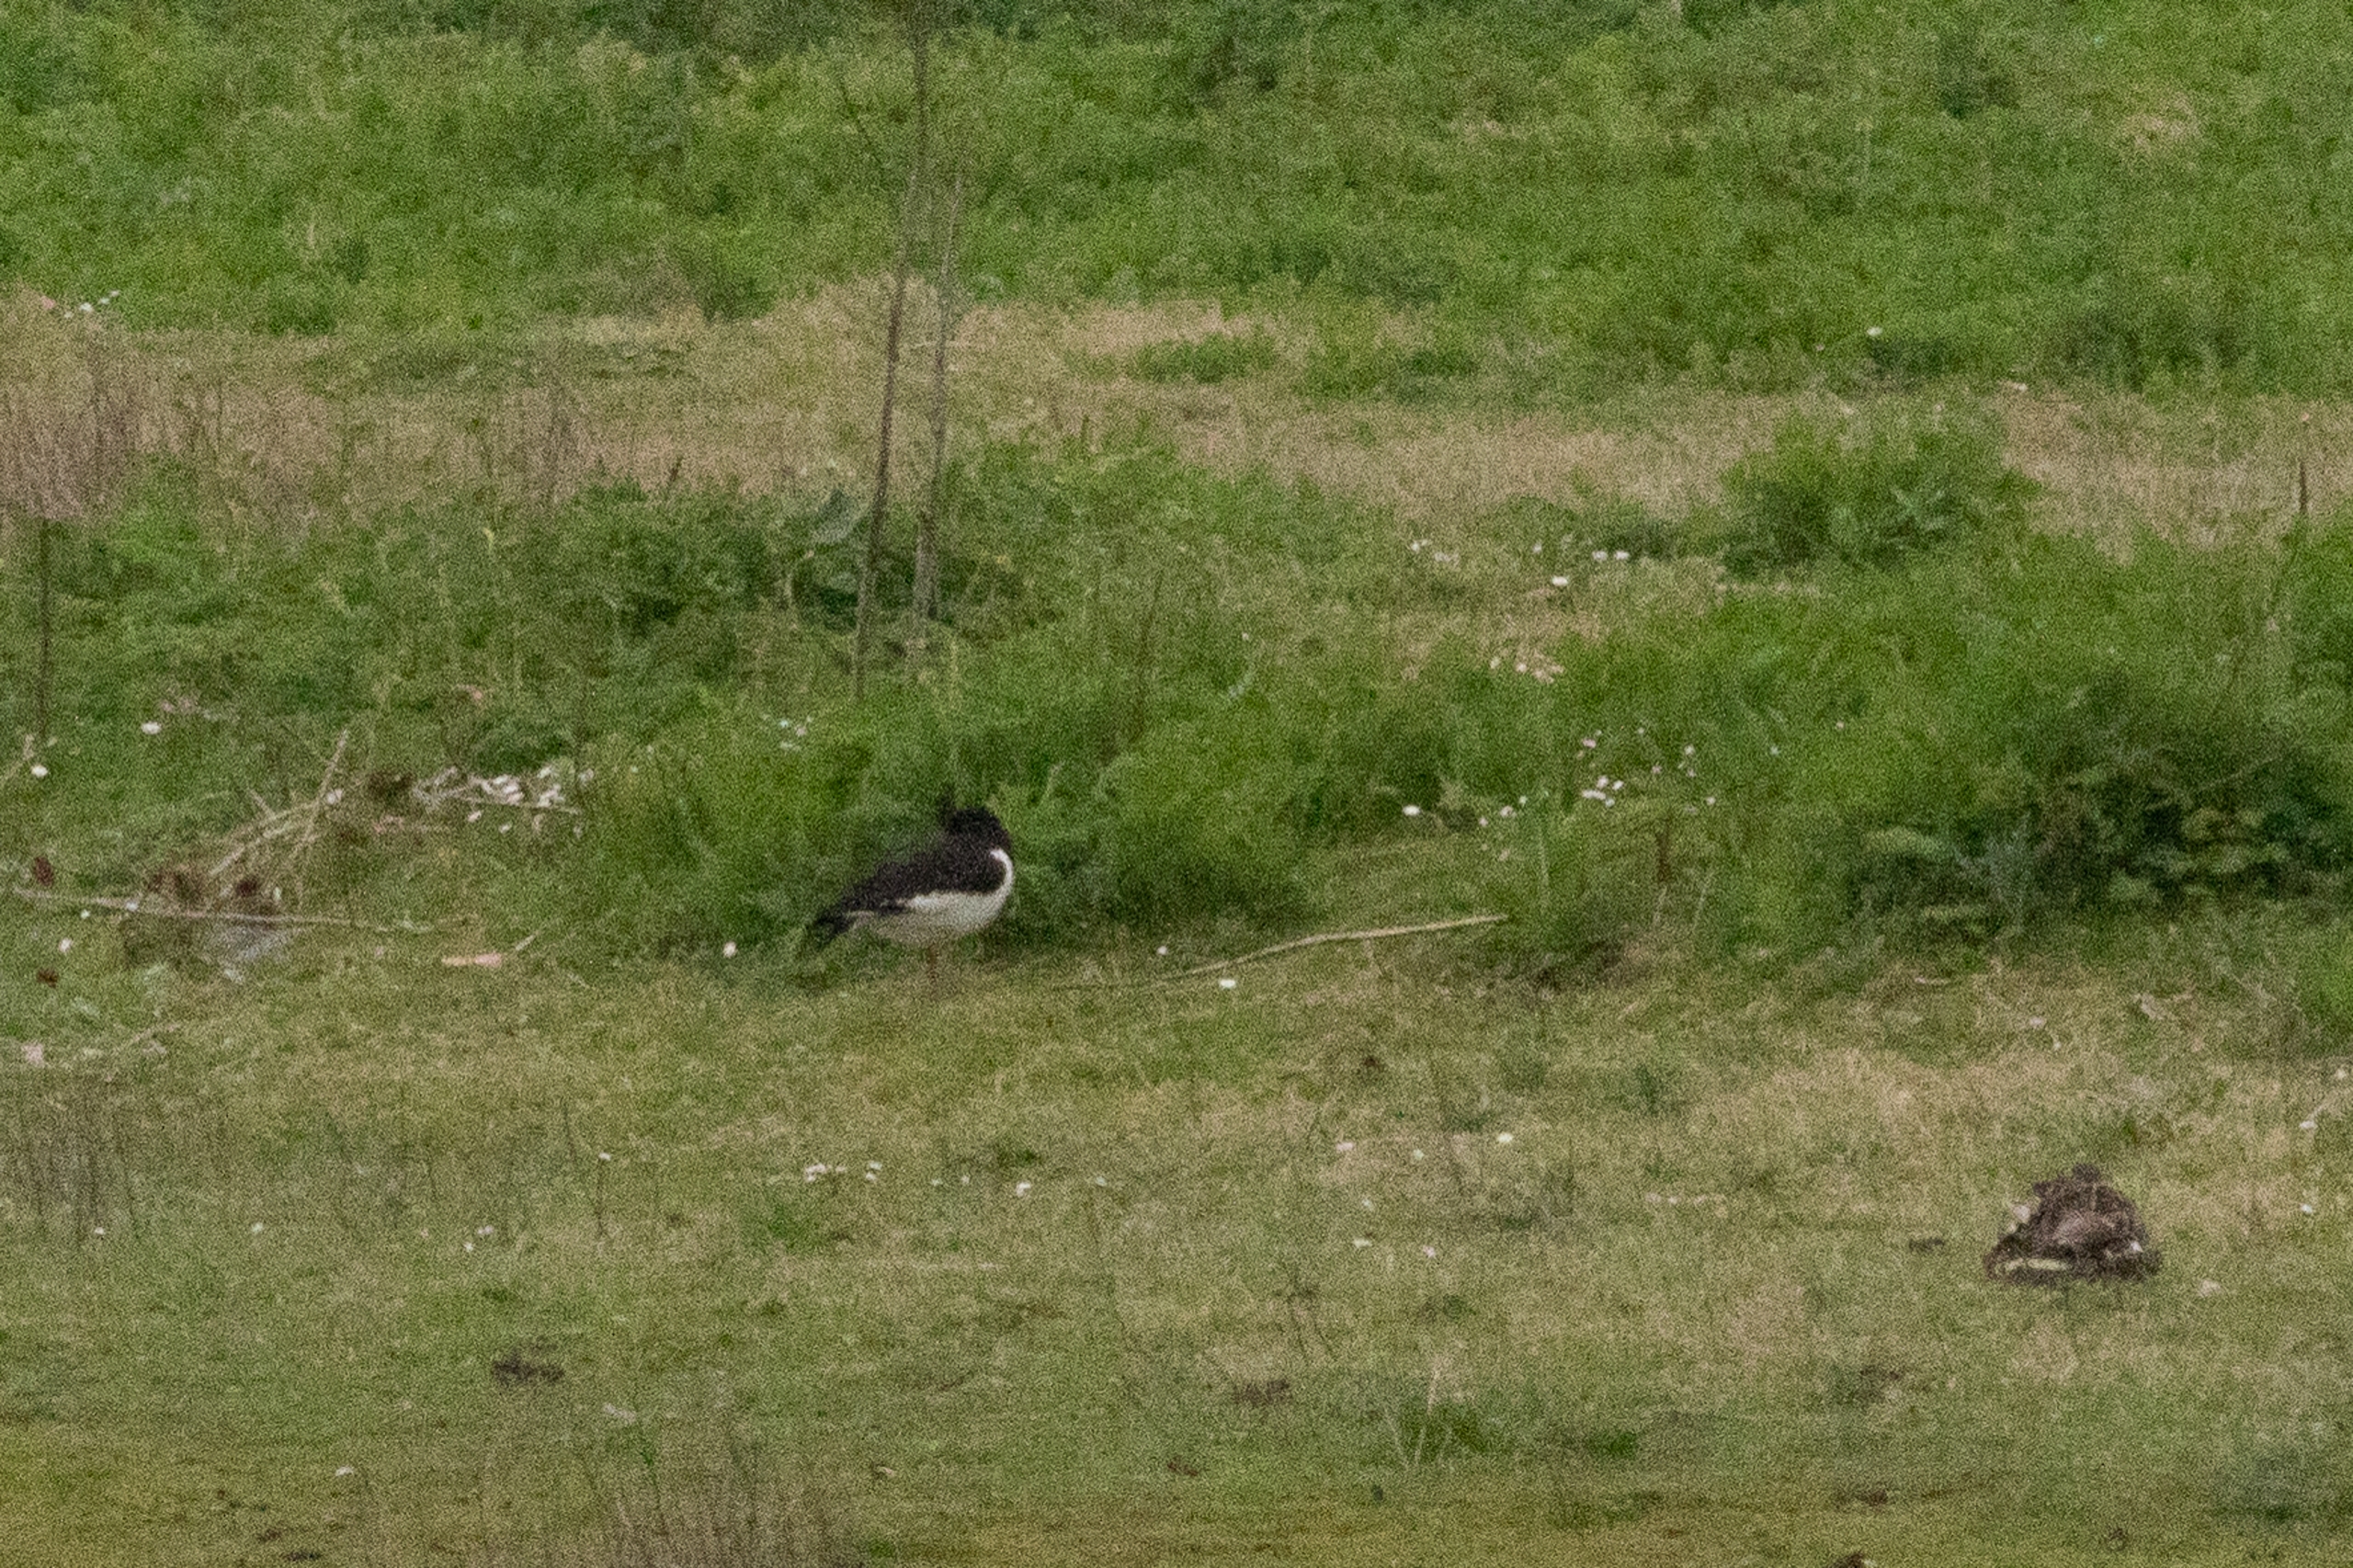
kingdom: Animalia
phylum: Chordata
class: Aves
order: Charadriiformes
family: Haematopodidae
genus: Haematopus
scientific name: Haematopus ostralegus
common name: Strandskade
